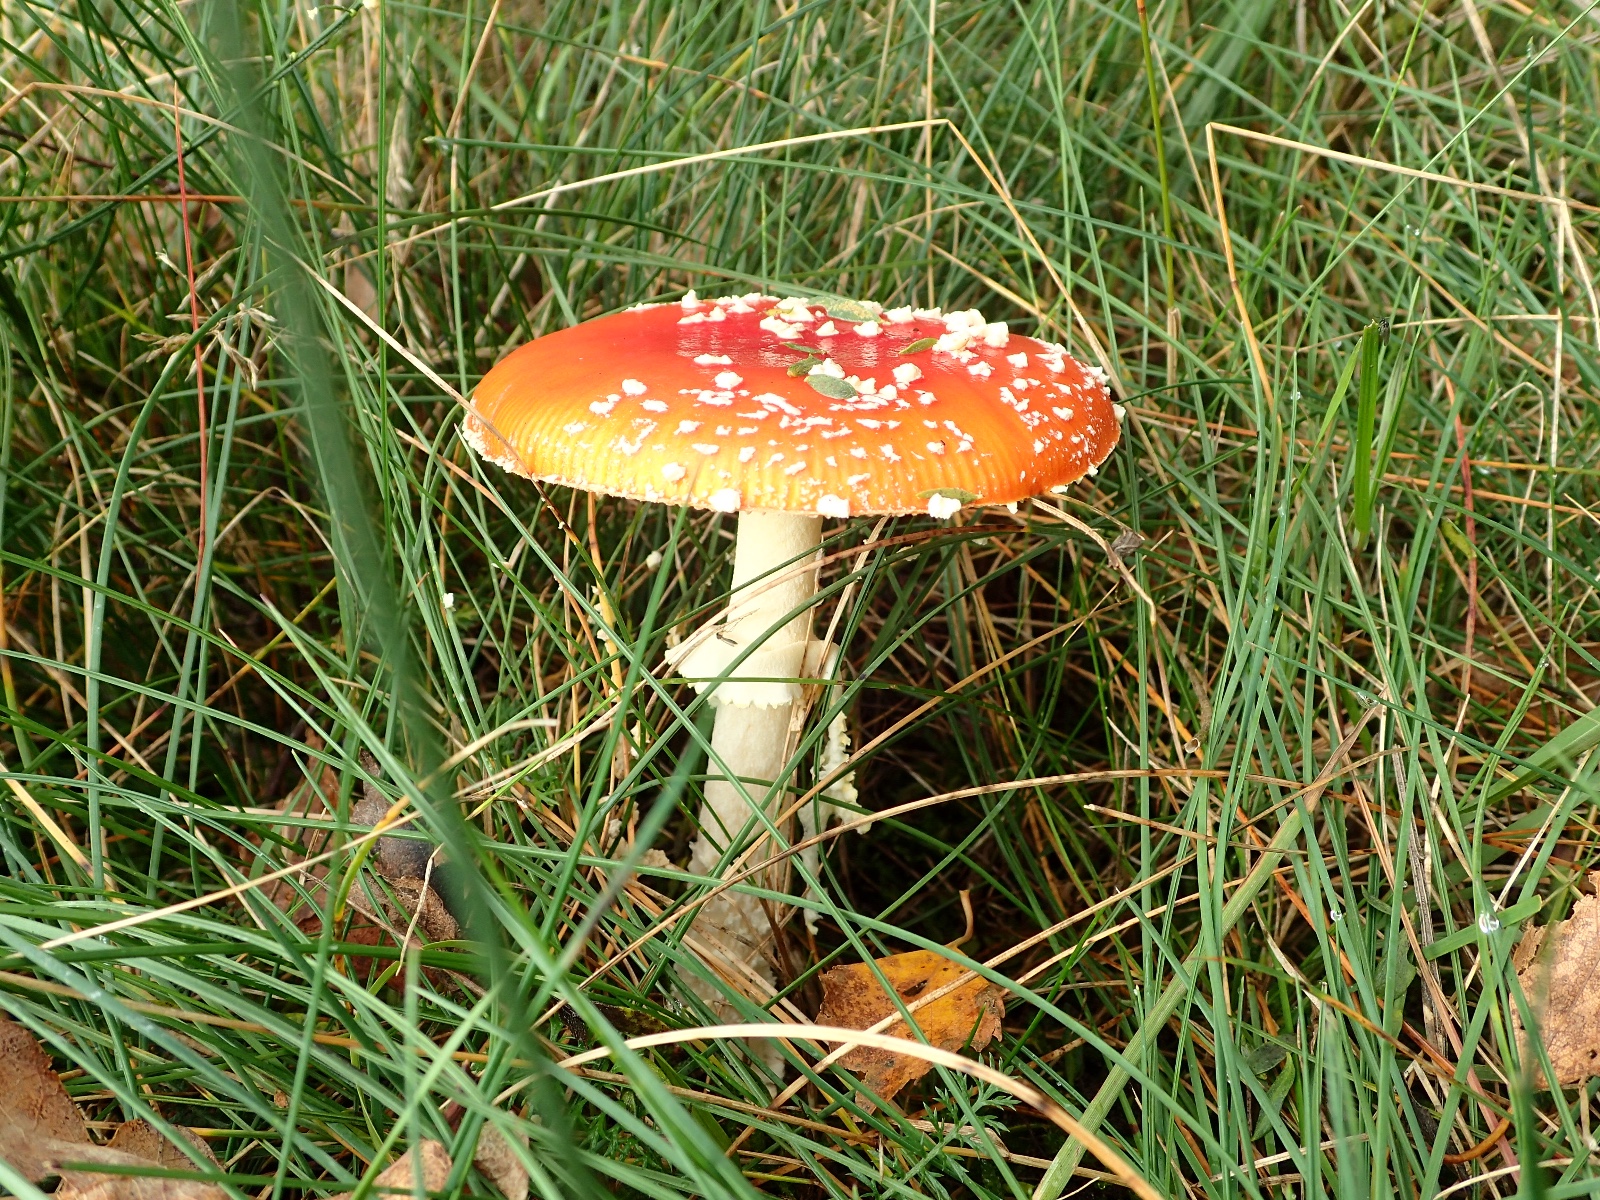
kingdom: Fungi
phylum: Basidiomycota
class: Agaricomycetes
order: Agaricales
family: Amanitaceae
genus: Amanita
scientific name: Amanita muscaria
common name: rød fluesvamp
